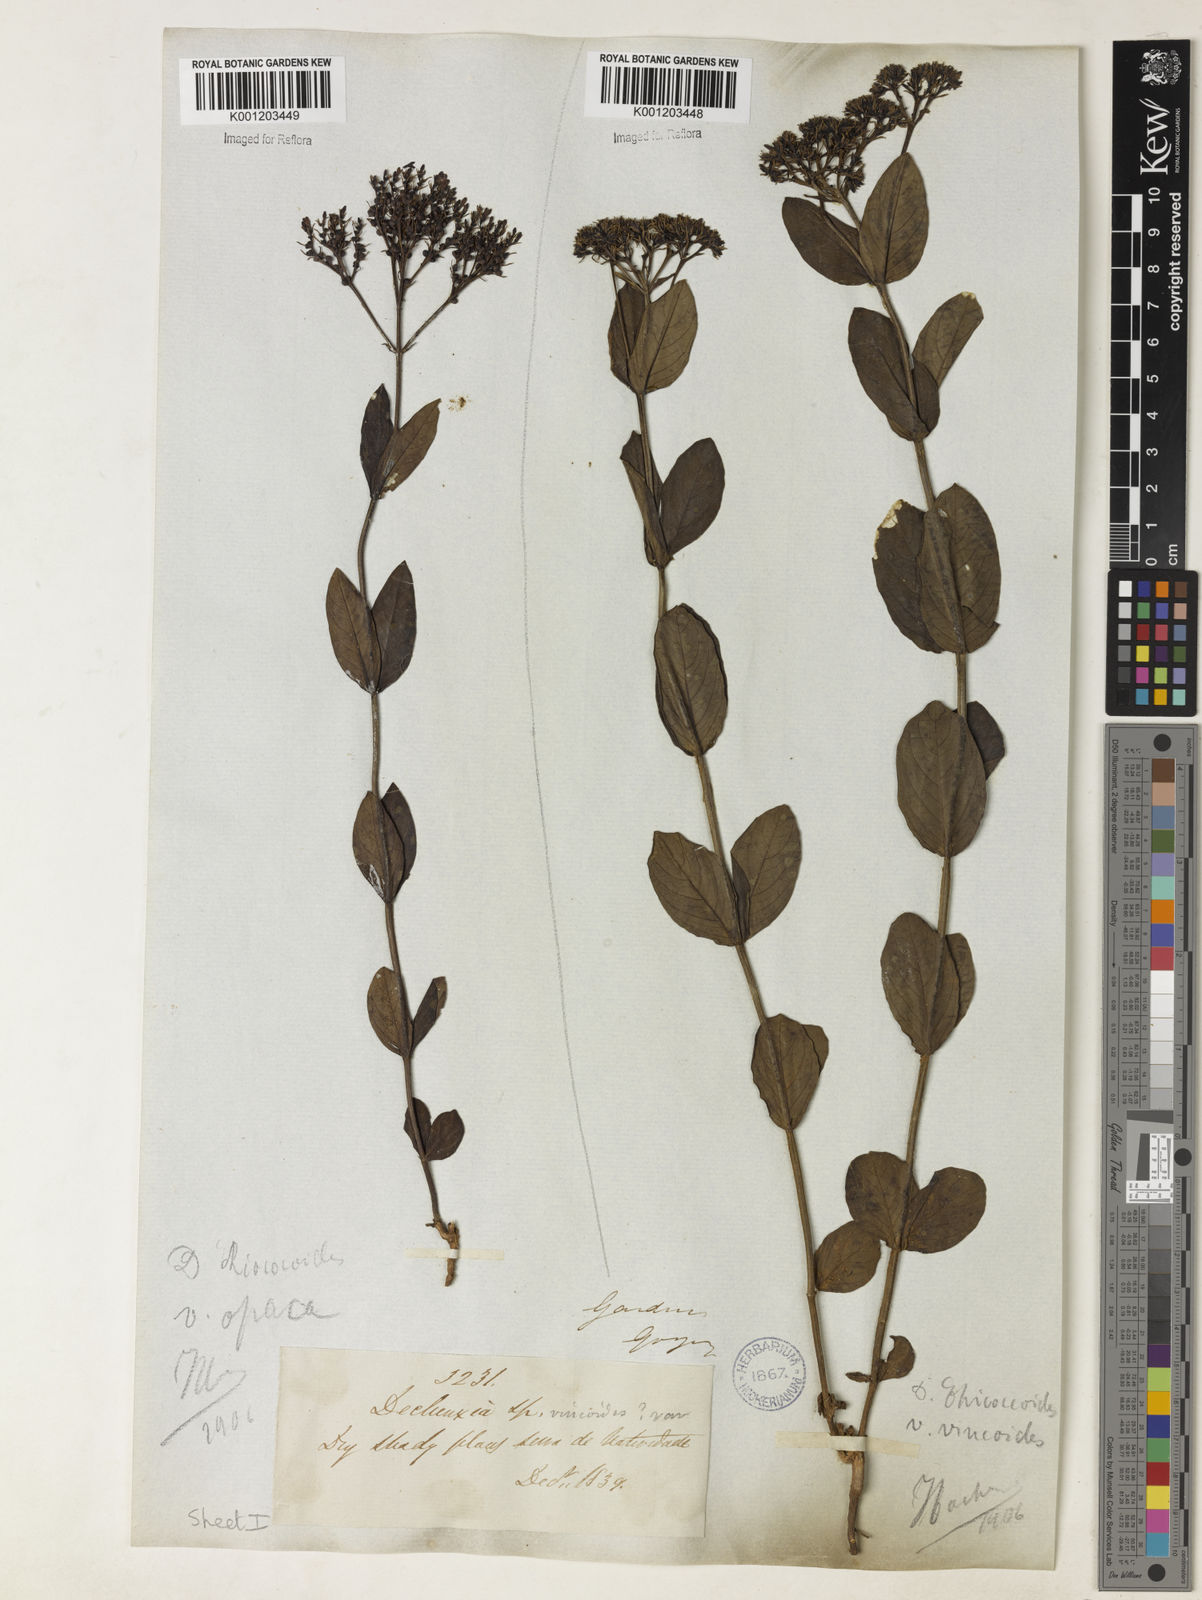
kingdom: Plantae
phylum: Tracheophyta
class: Magnoliopsida
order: Gentianales
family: Rubiaceae
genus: Declieuxia
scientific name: Declieuxia fruticosa
